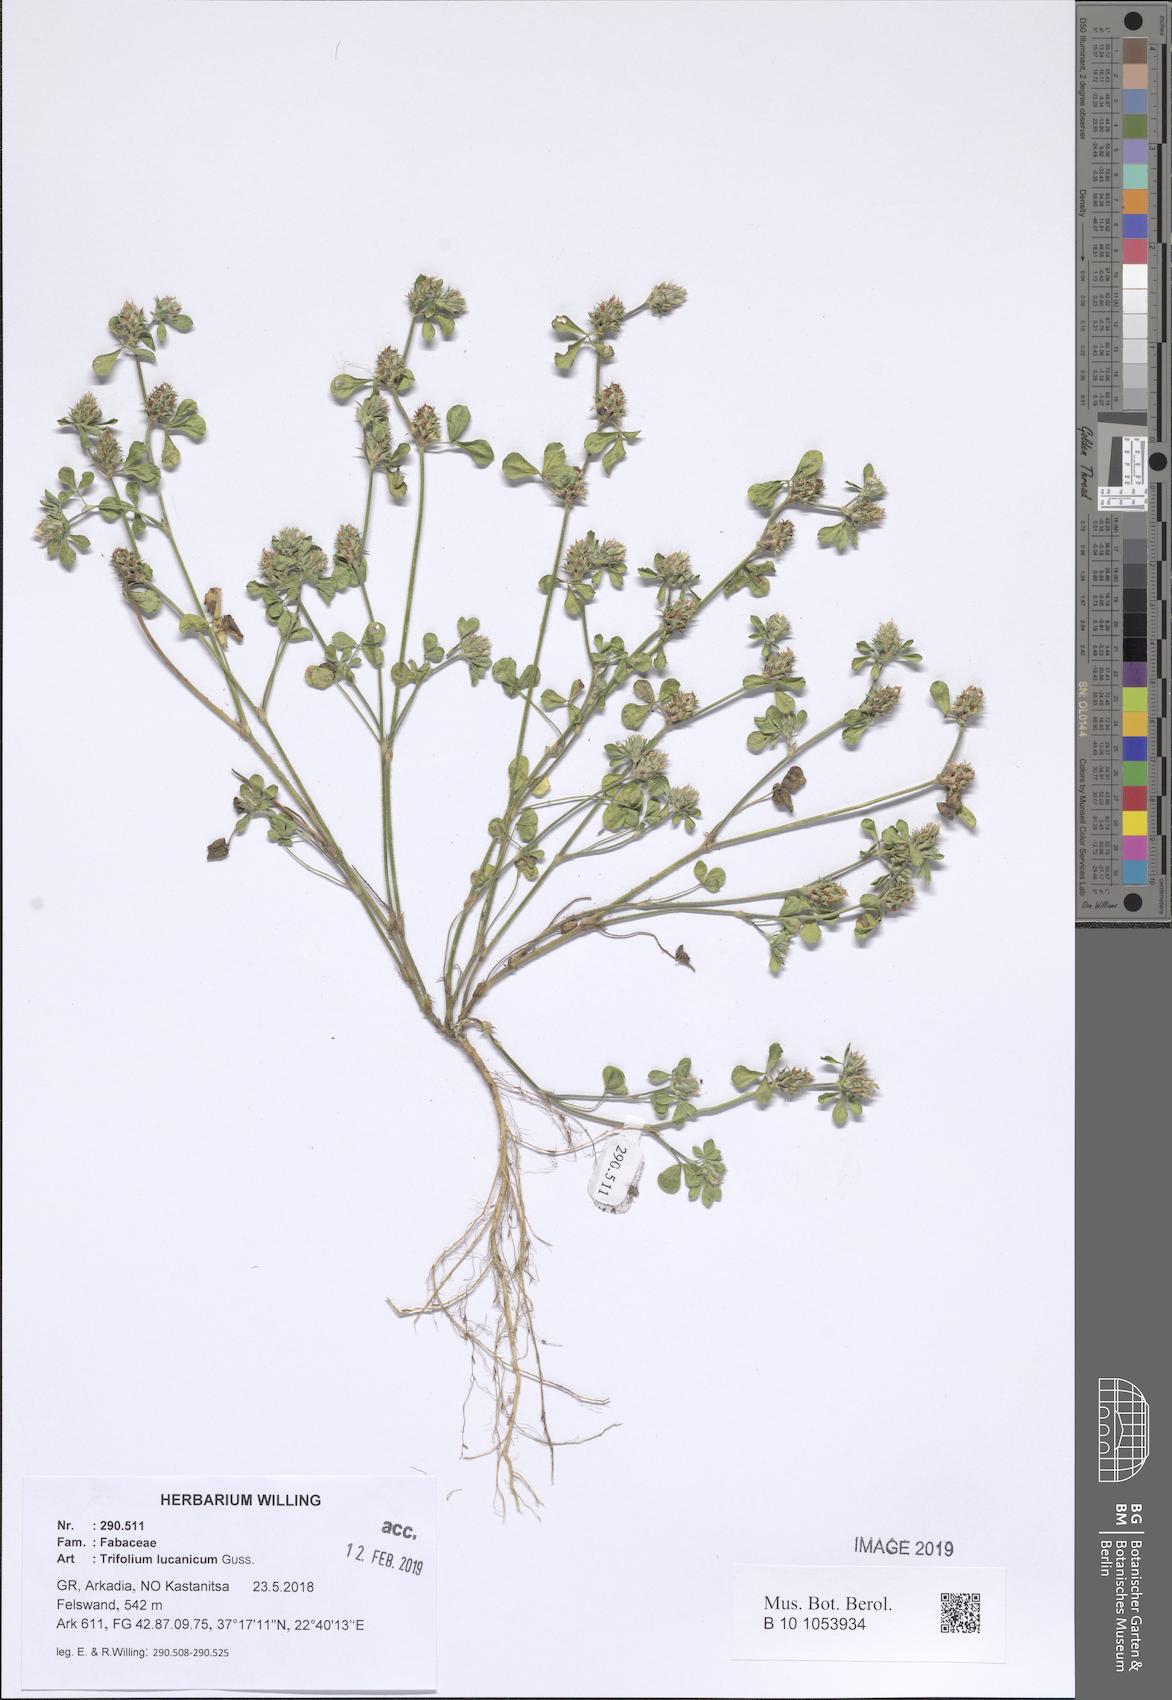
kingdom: Plantae
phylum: Tracheophyta
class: Magnoliopsida
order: Fabales
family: Fabaceae
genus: Trifolium
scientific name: Trifolium lucanicum
